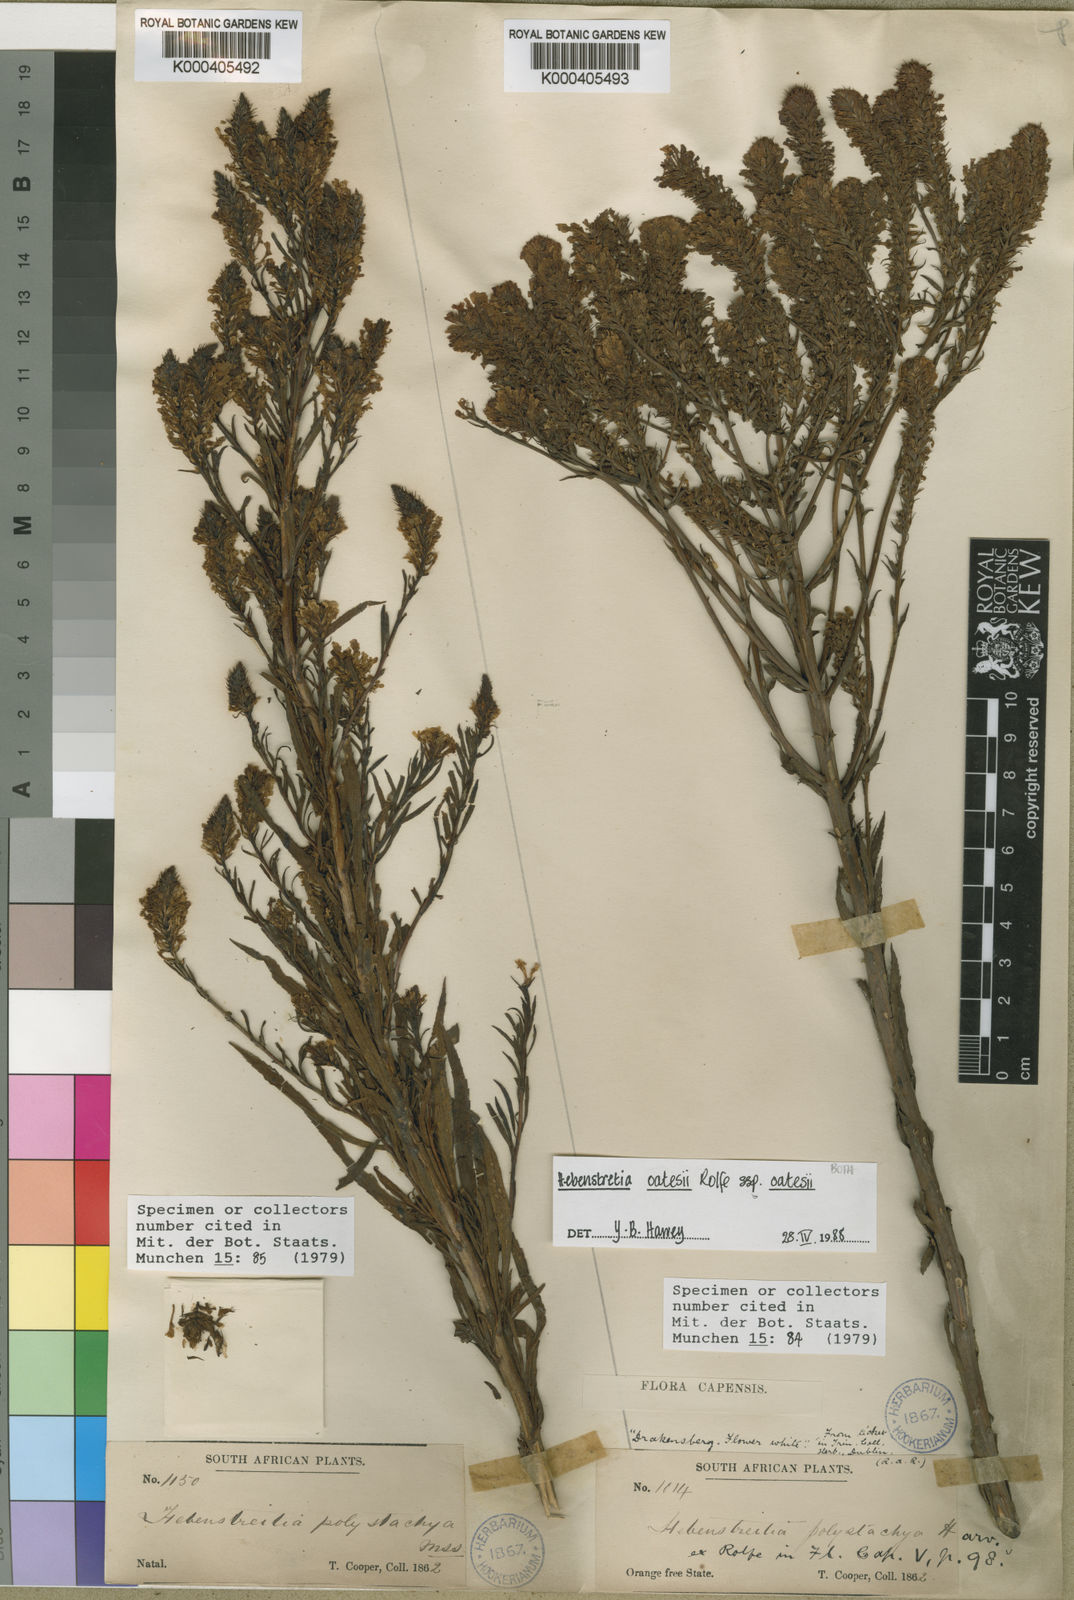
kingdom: Plantae
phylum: Tracheophyta
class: Magnoliopsida
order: Lamiales
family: Scrophulariaceae
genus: Hebenstretia
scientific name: Hebenstretia oatesii
